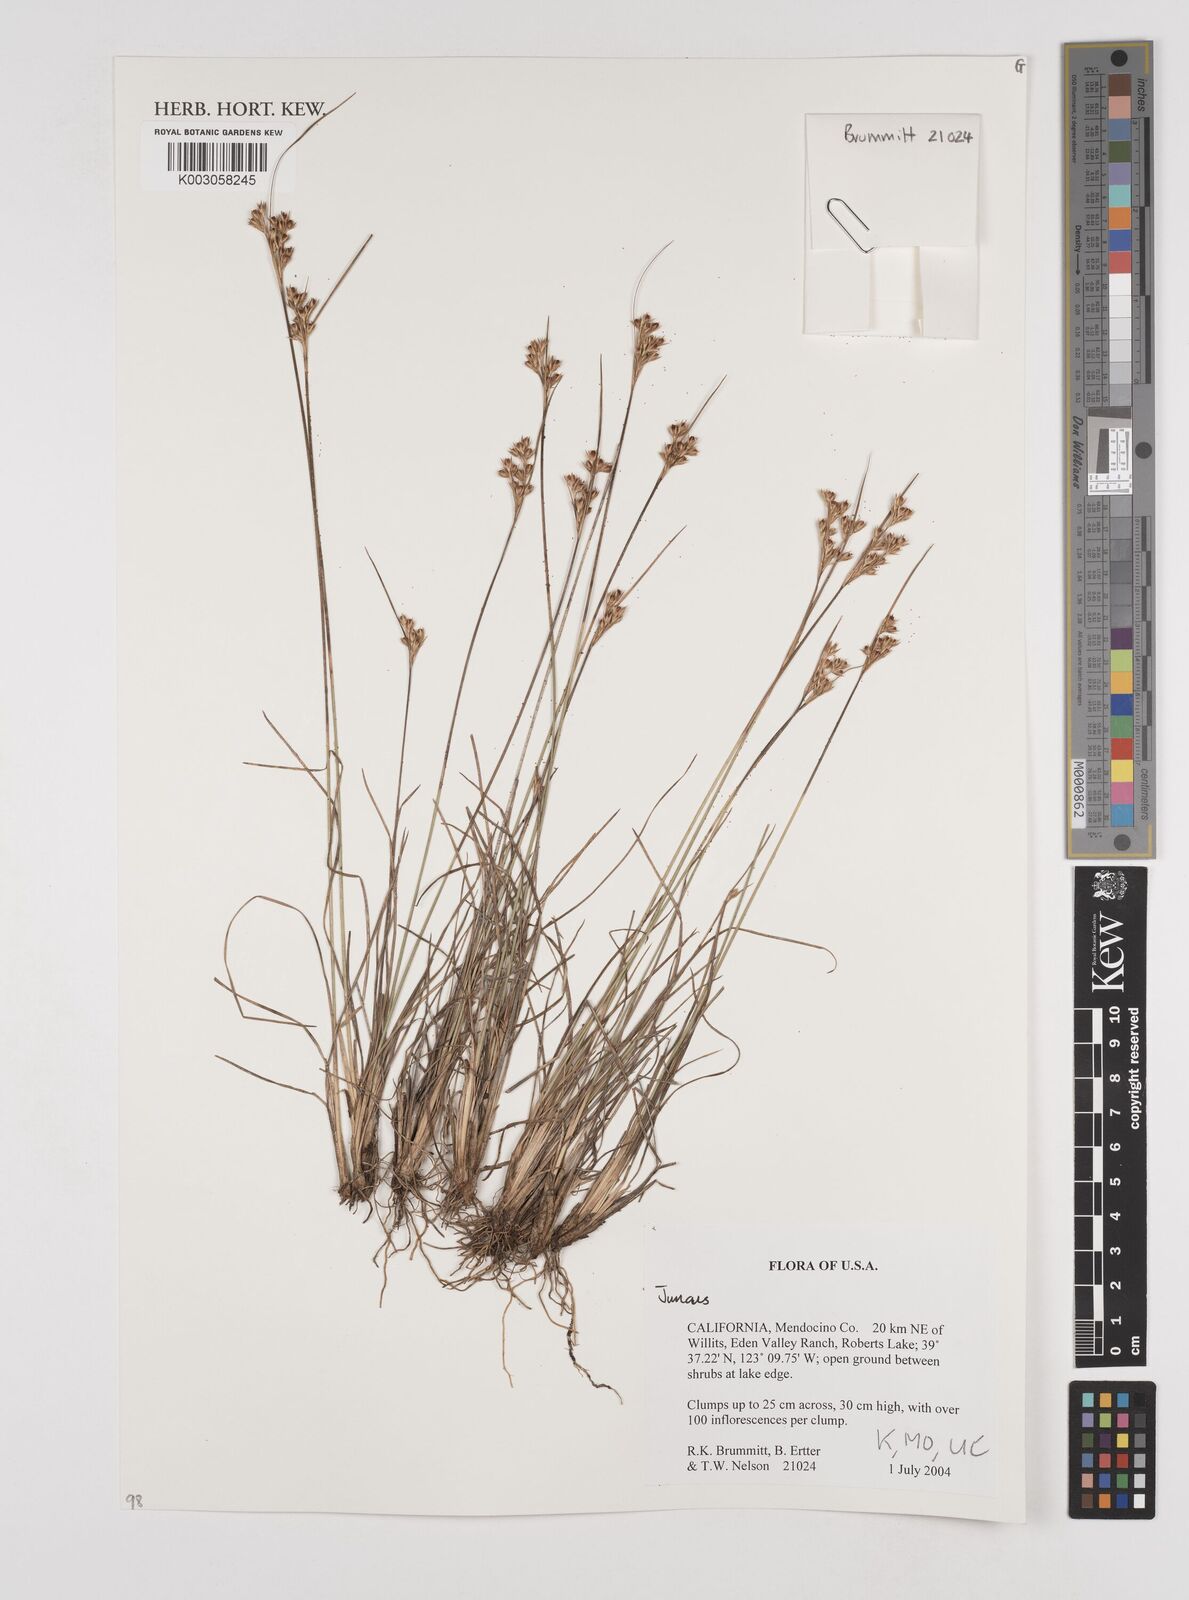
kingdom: Plantae
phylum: Tracheophyta
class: Liliopsida
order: Poales
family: Juncaceae
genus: Juncus
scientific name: Juncus
